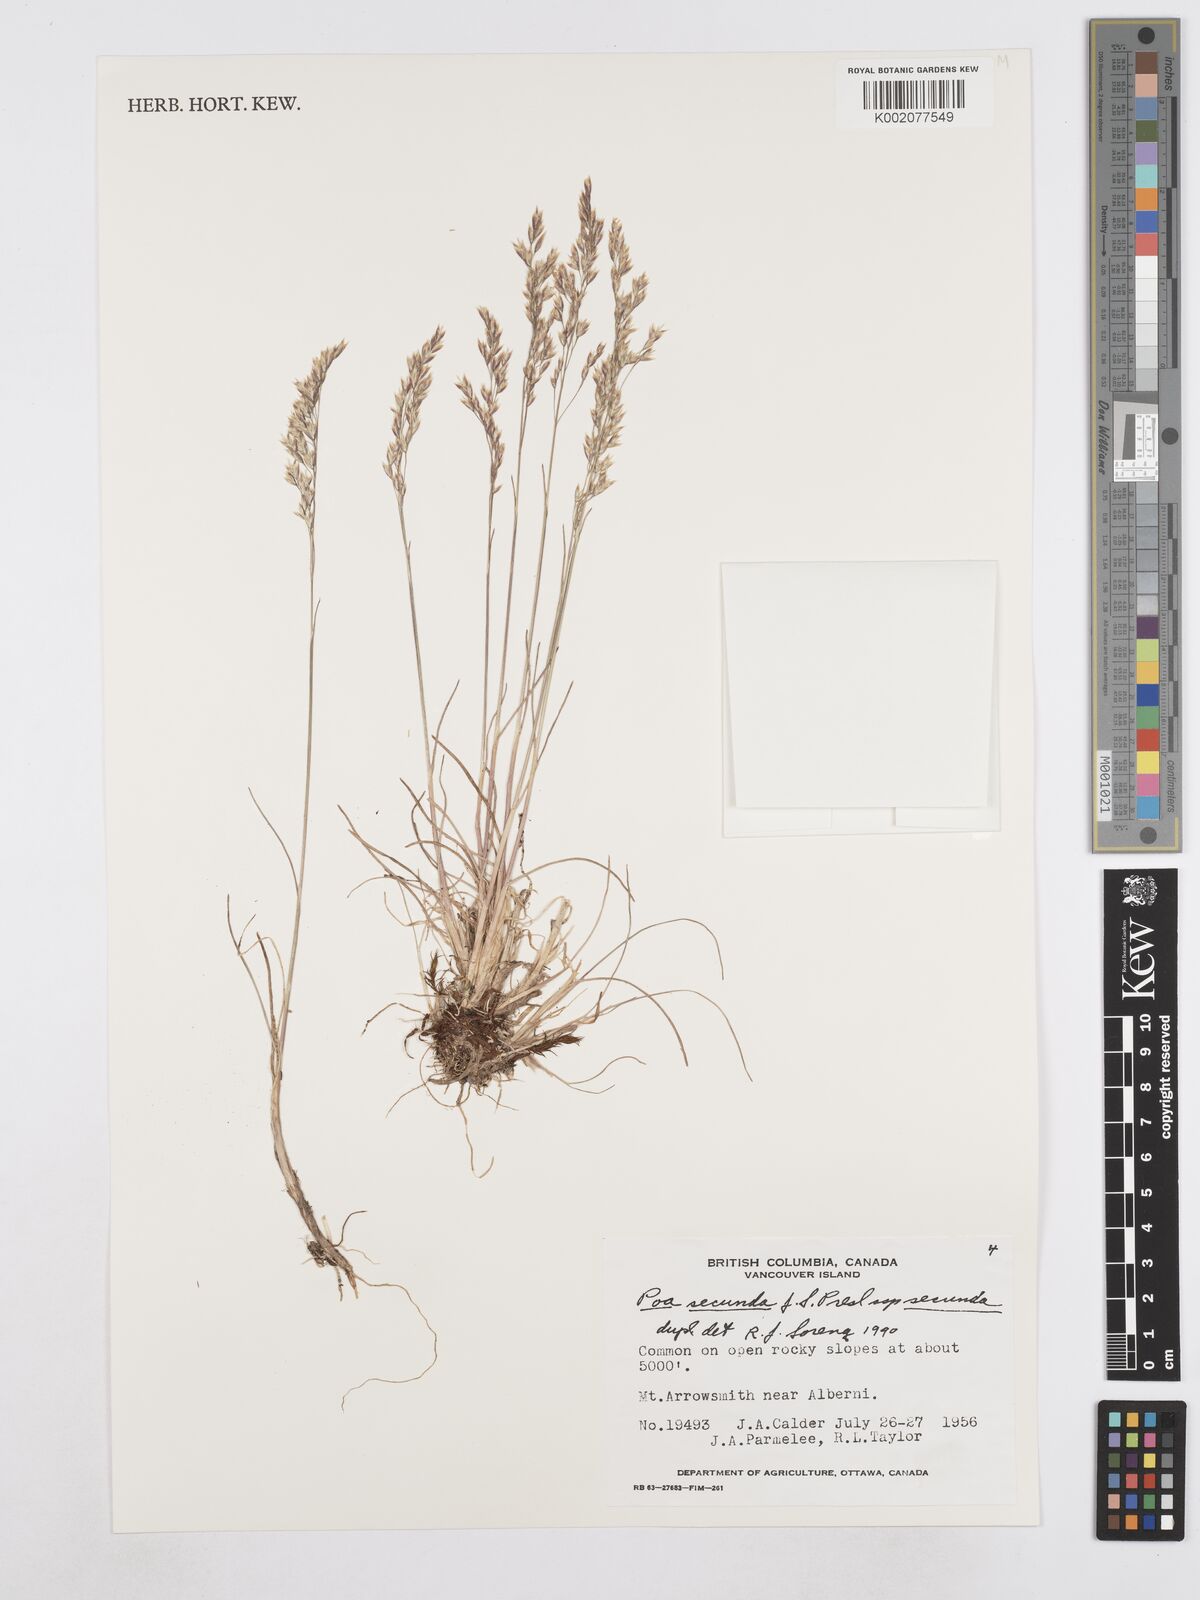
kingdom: Plantae
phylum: Tracheophyta
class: Liliopsida
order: Poales
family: Poaceae
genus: Poa
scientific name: Poa secunda
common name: Sandberg bluegrass
